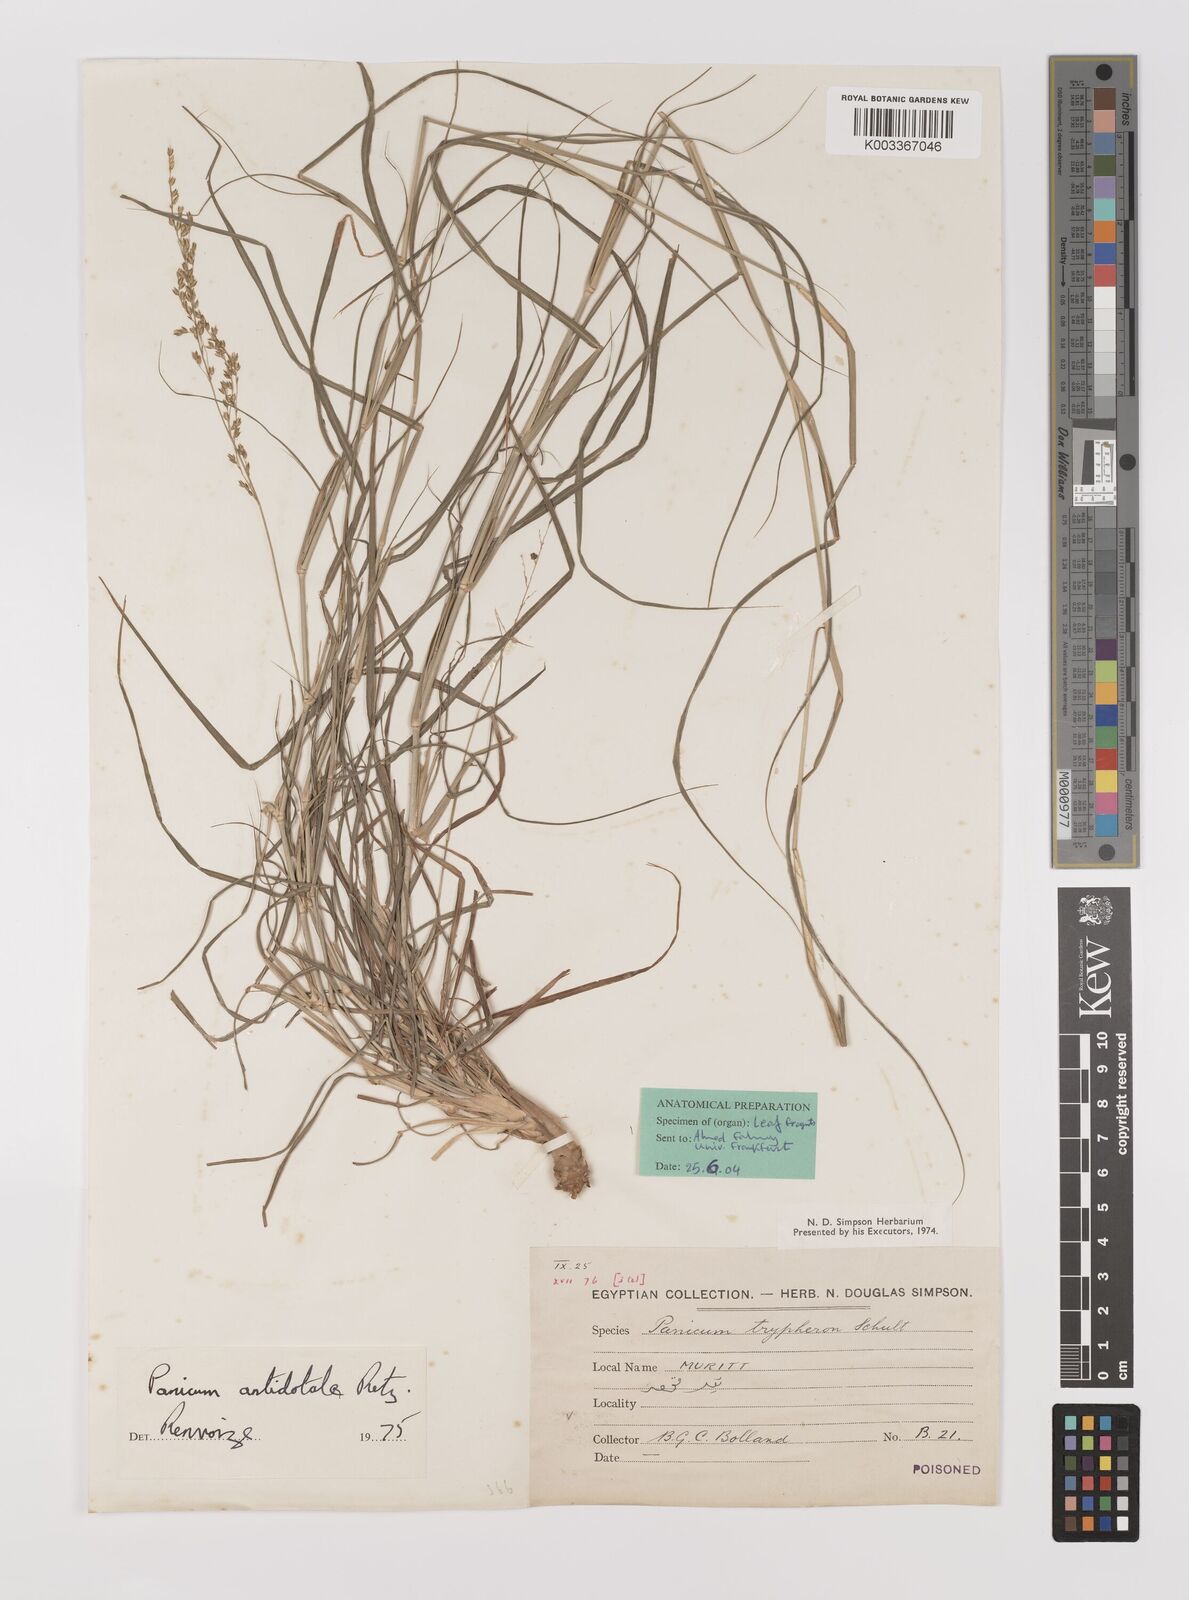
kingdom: Plantae
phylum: Tracheophyta
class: Liliopsida
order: Poales
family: Poaceae
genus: Panicum
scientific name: Panicum antidotale
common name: Blue panicum
